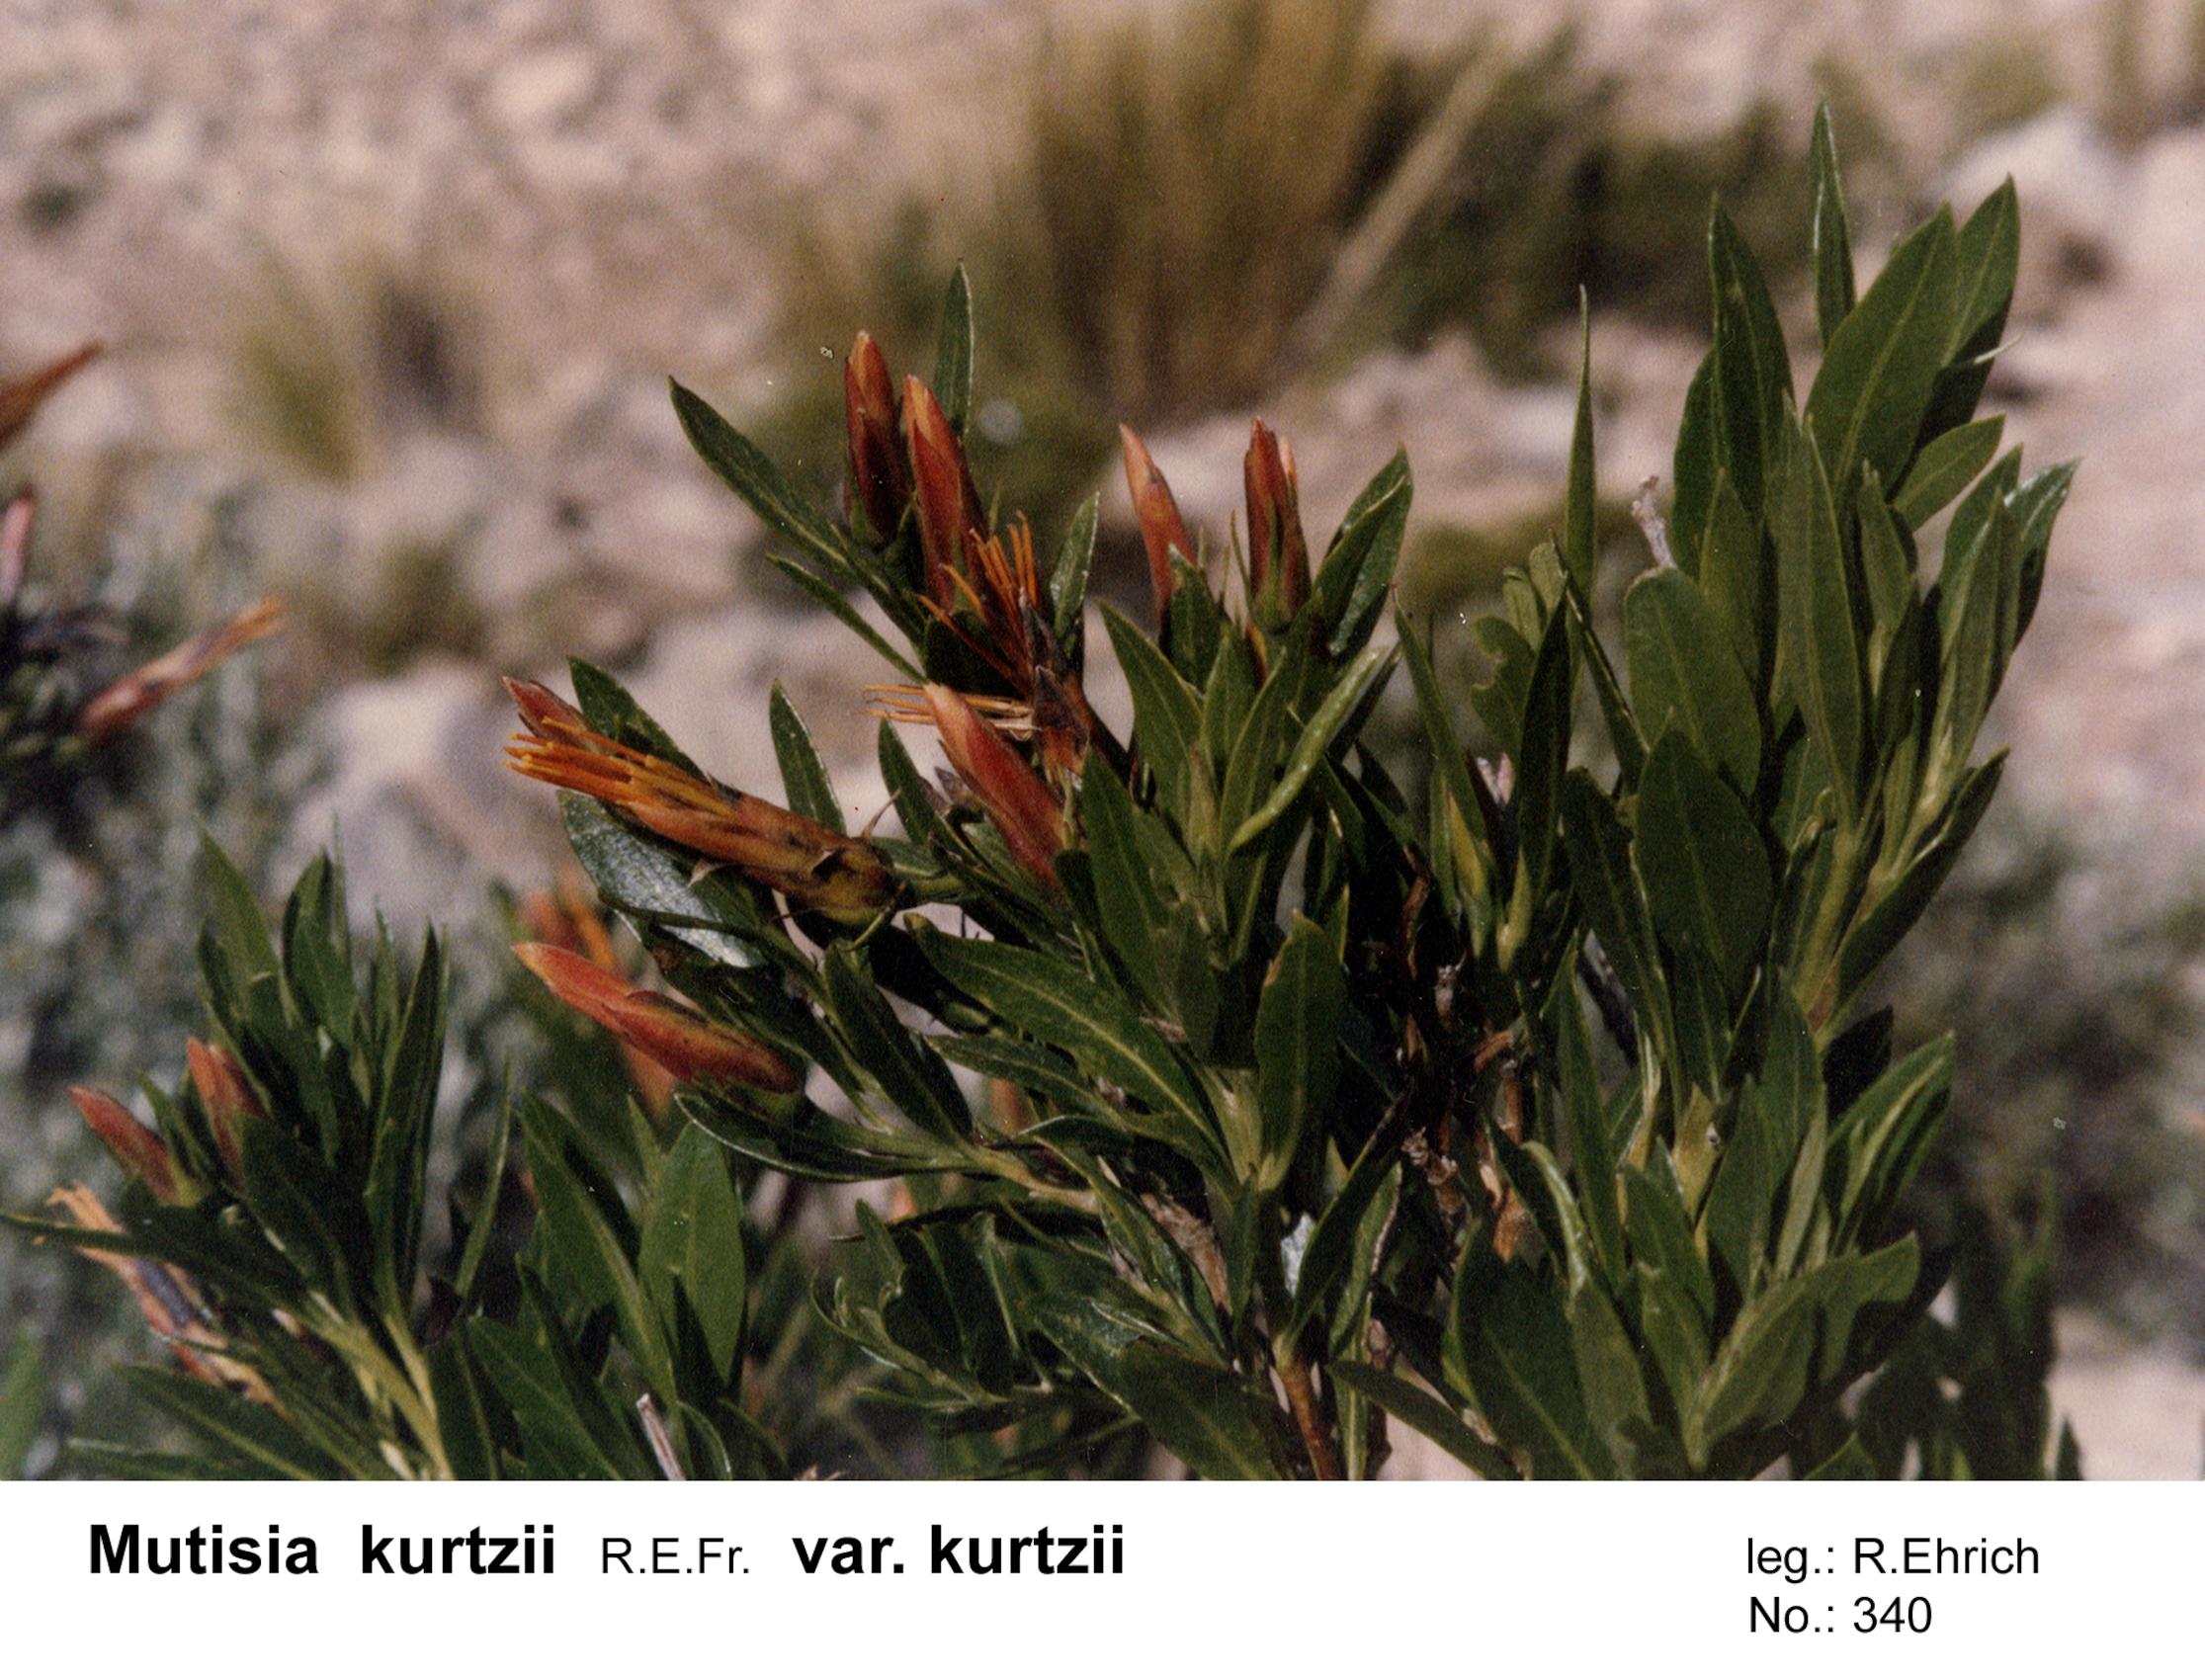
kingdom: Plantae
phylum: Tracheophyta
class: Magnoliopsida
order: Asterales
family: Asteraceae
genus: Mutisia
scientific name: Mutisia kurtzii
